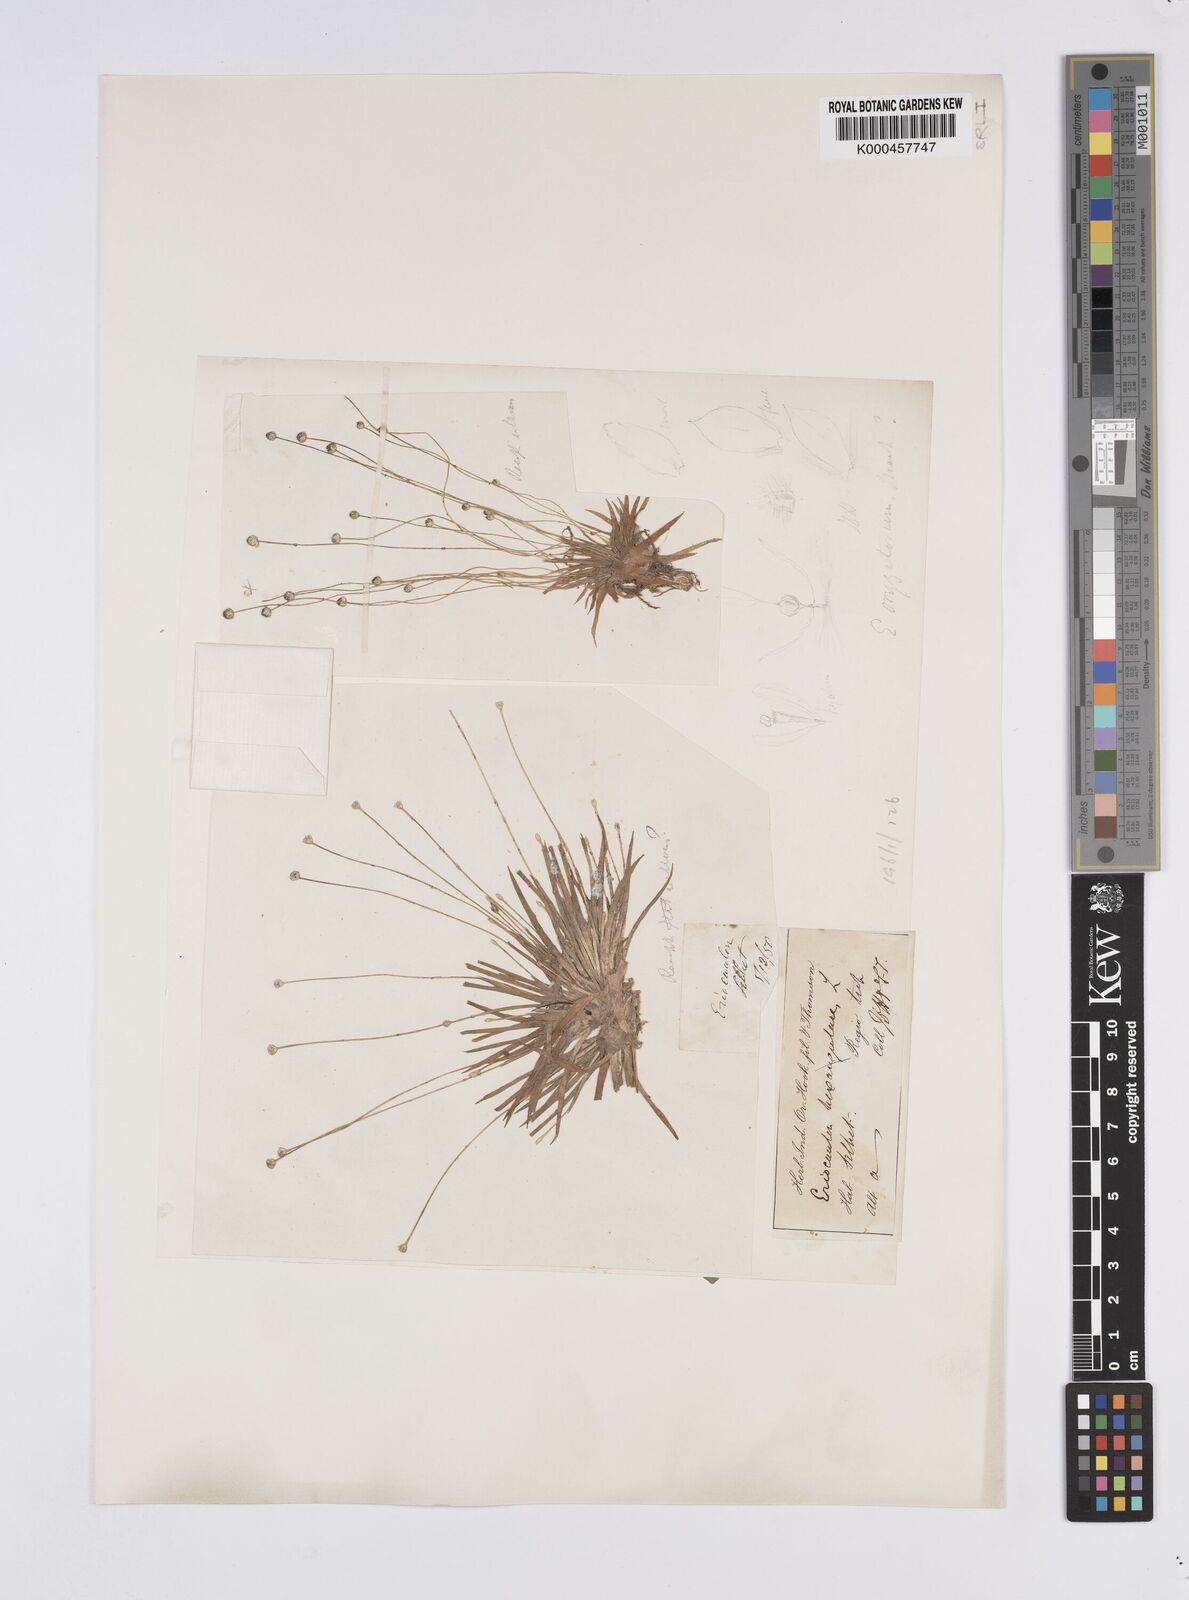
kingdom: Plantae
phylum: Tracheophyta
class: Liliopsida
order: Poales
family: Eriocaulaceae
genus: Eriocaulon
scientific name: Eriocaulon oryzetorum
